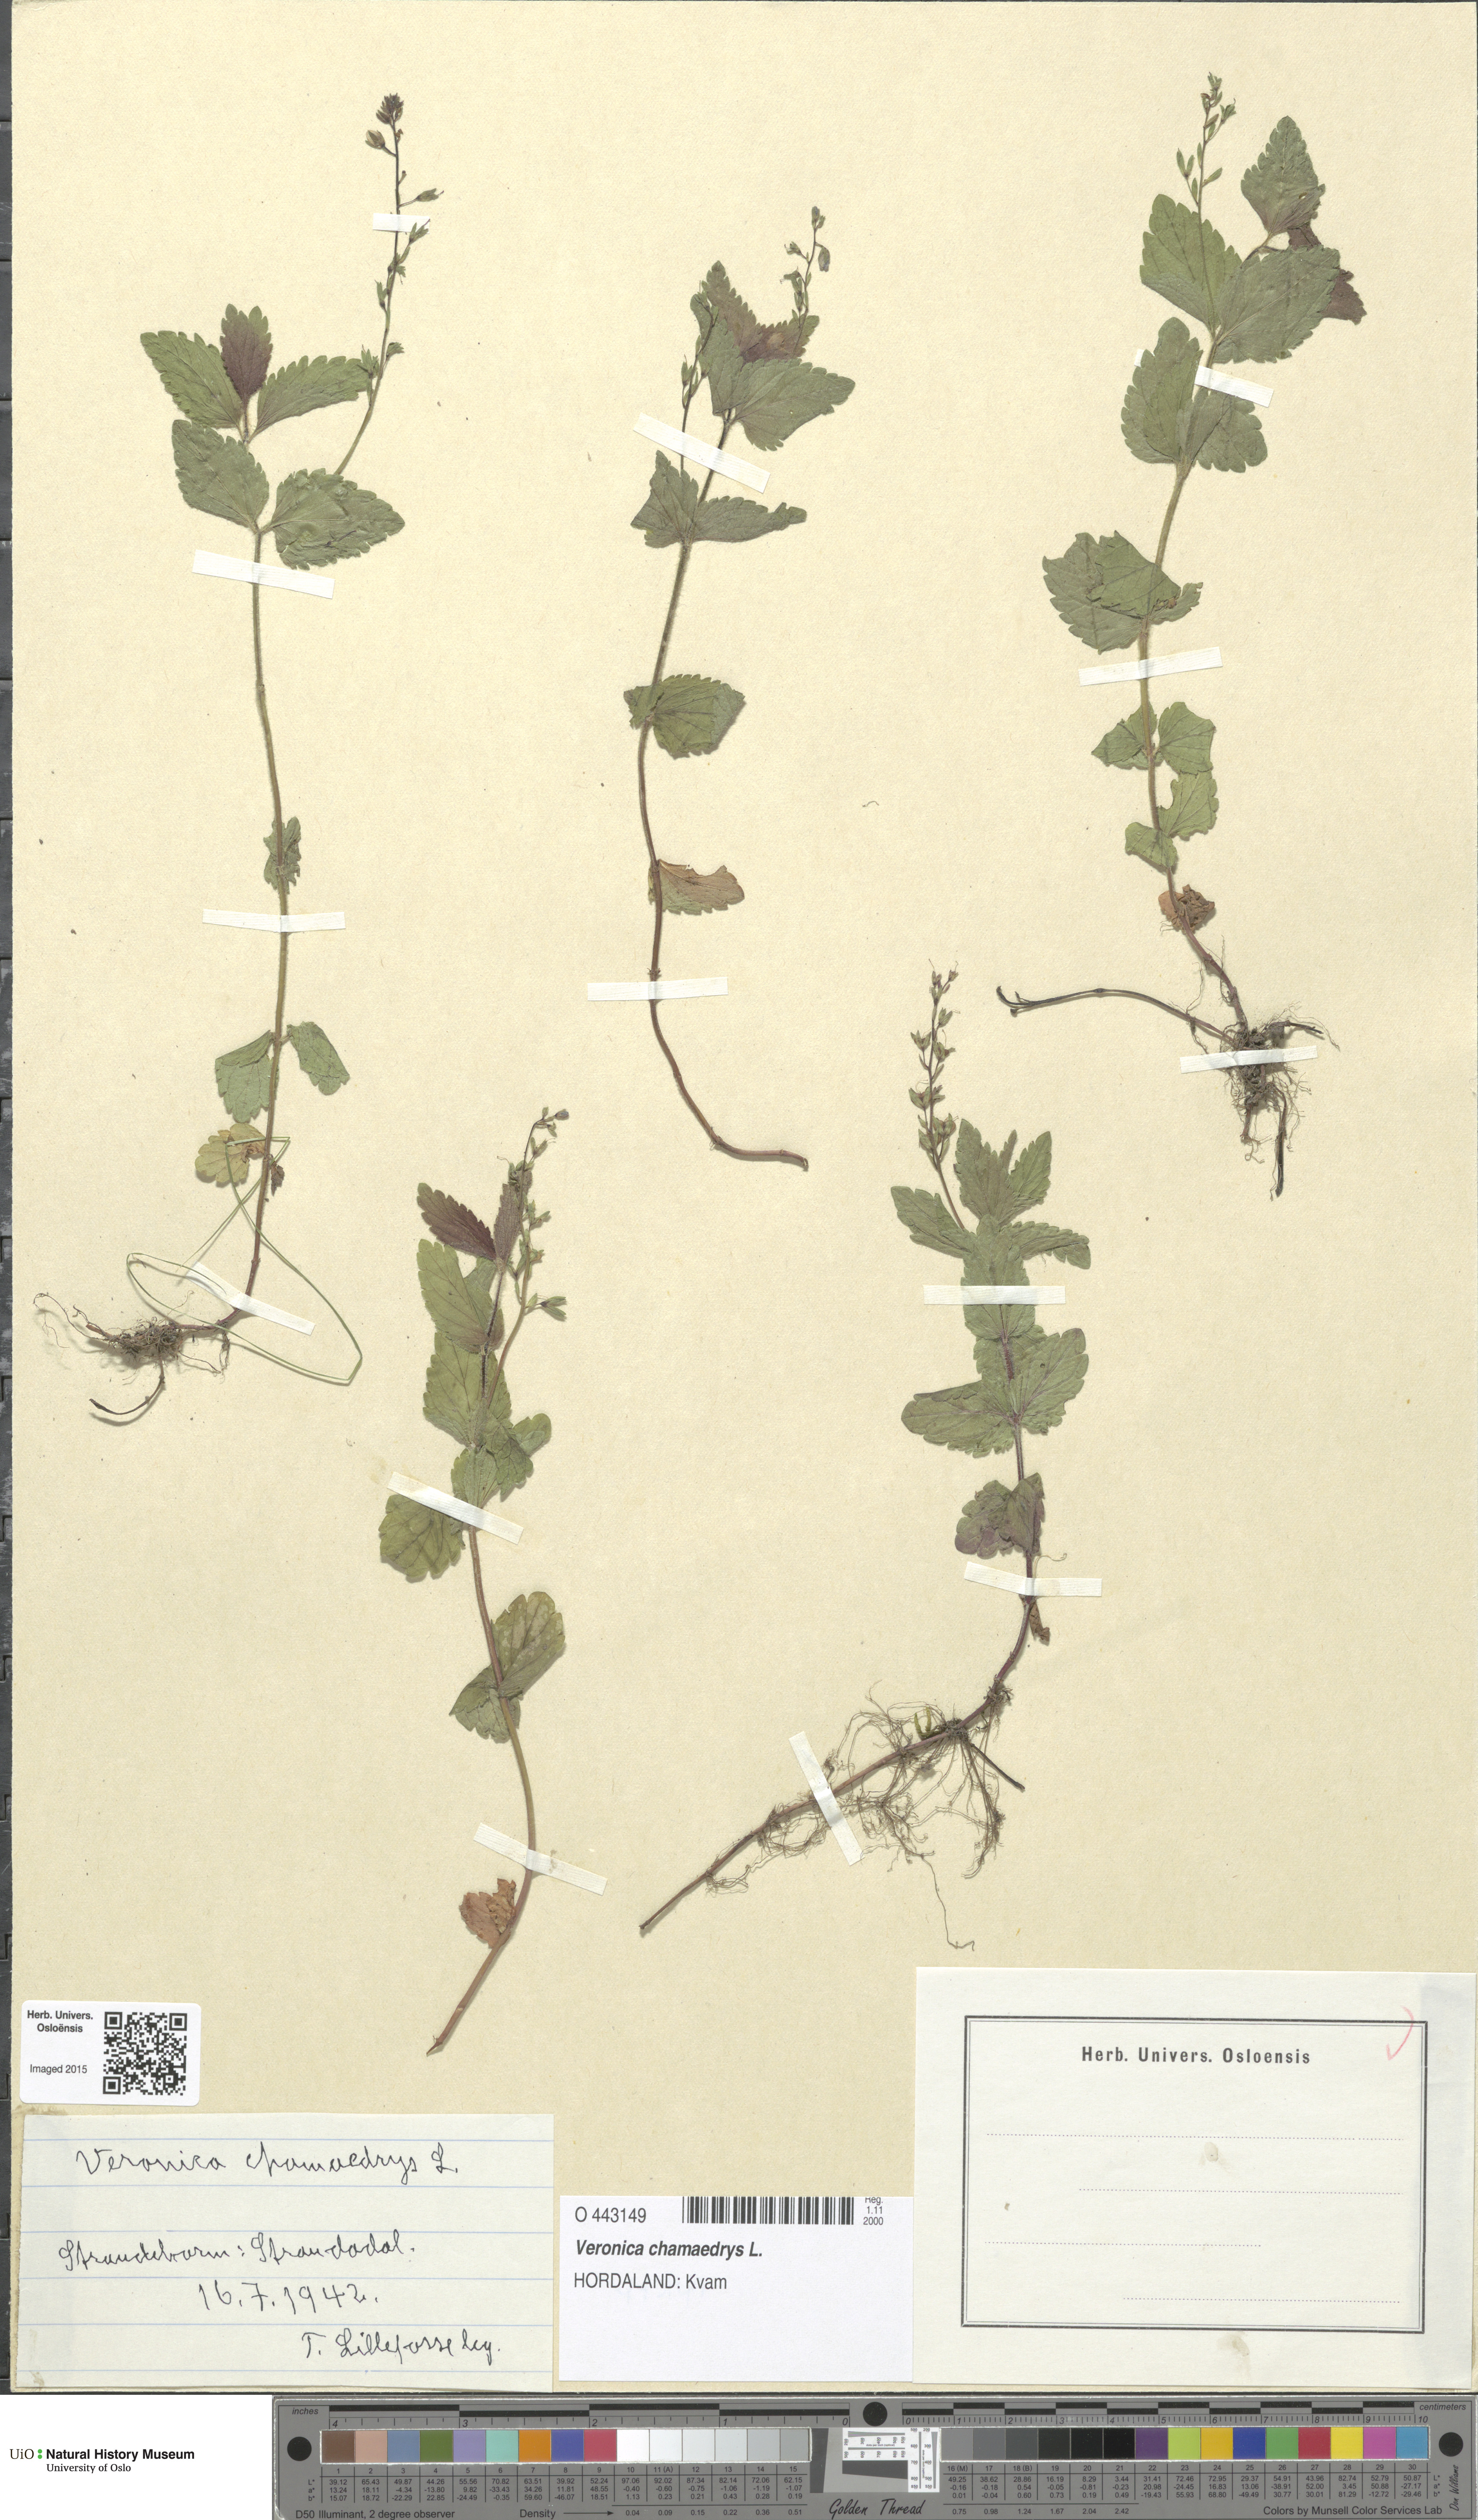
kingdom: Plantae
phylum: Tracheophyta
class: Magnoliopsida
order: Lamiales
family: Plantaginaceae
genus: Veronica
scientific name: Veronica chamaedrys
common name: Germander speedwell
